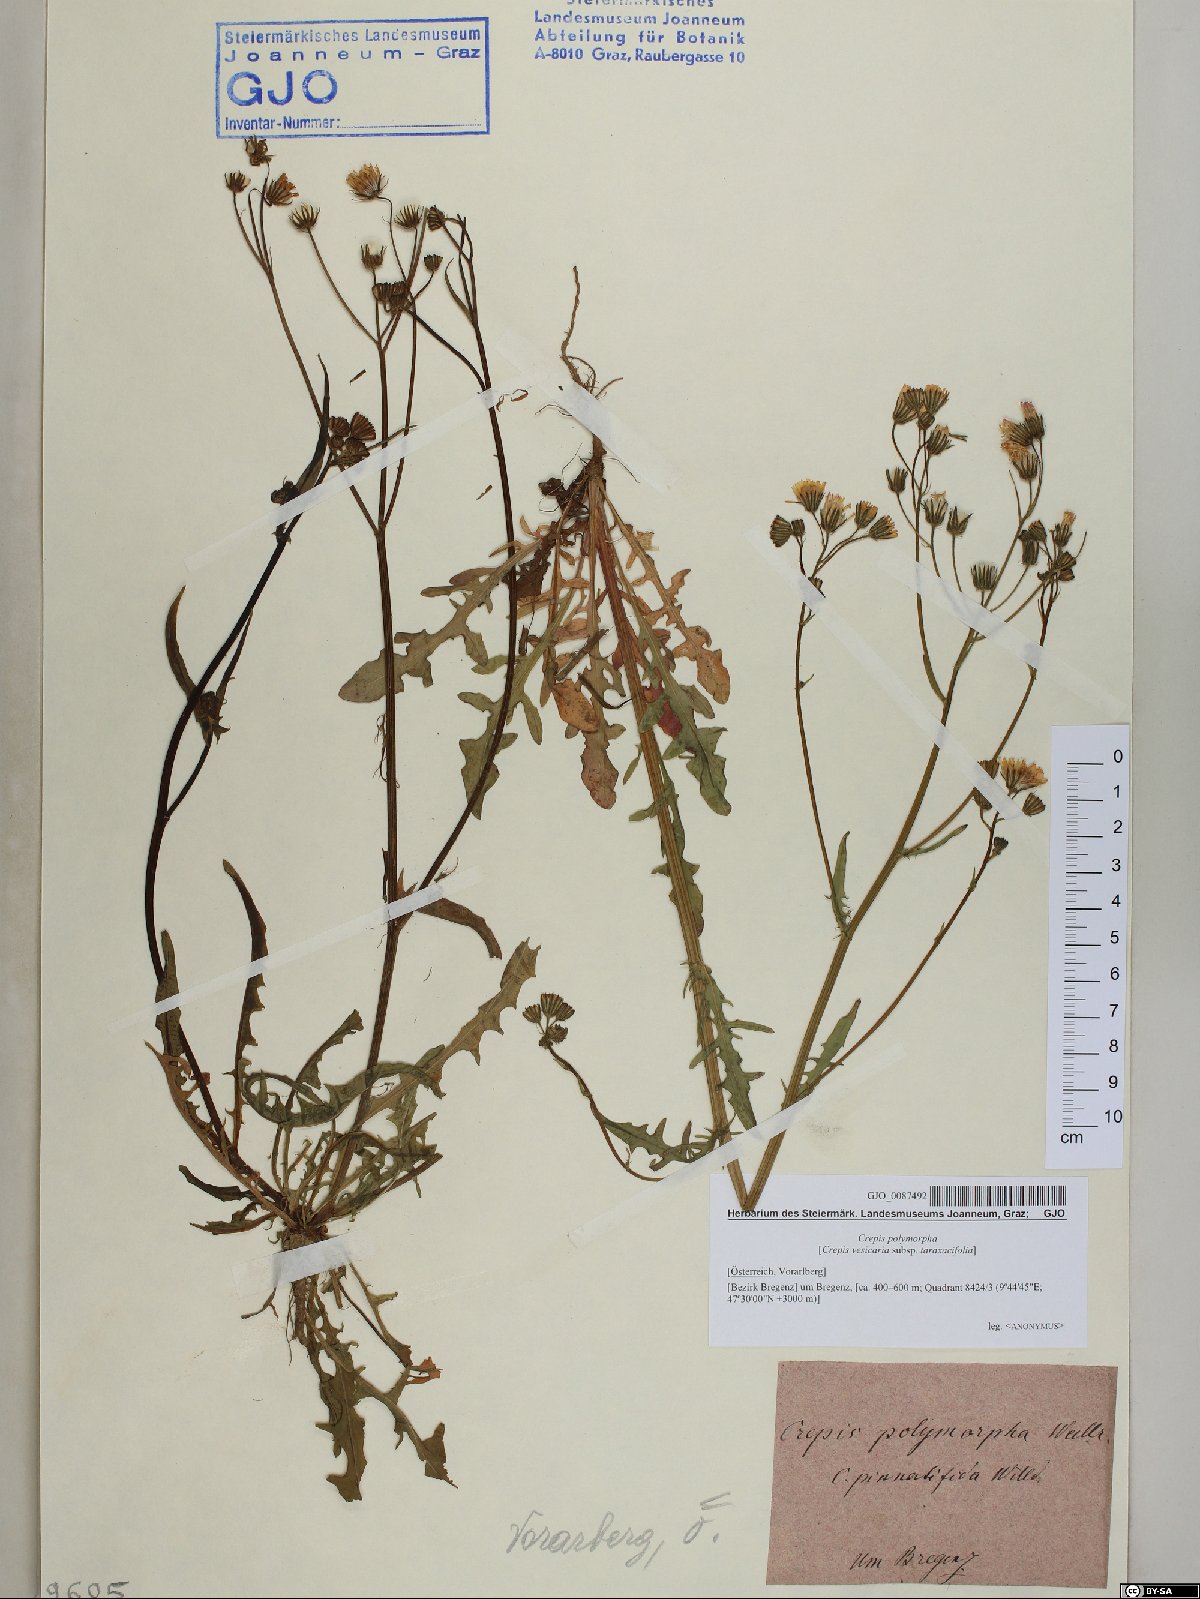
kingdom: Plantae
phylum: Tracheophyta
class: Magnoliopsida
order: Asterales
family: Asteraceae
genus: Crepis
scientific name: Crepis capillaris
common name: Smooth hawksbeard
